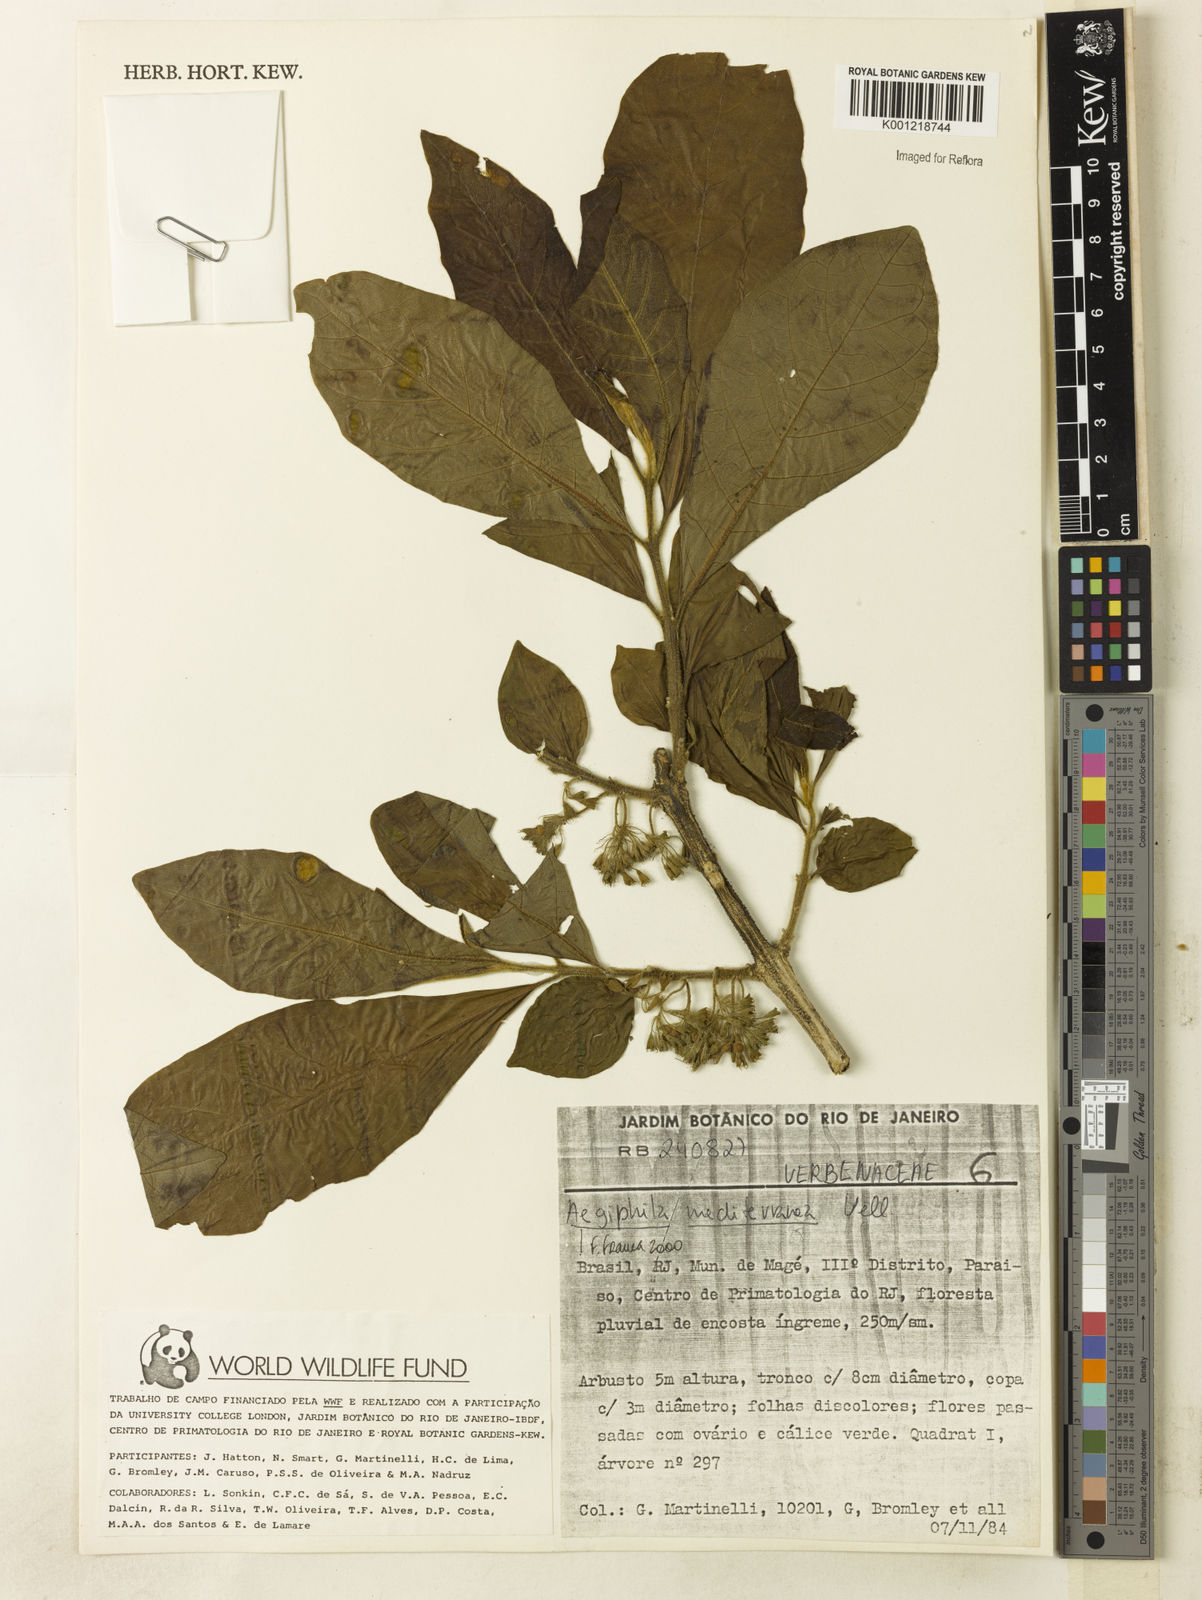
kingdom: Plantae
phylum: Tracheophyta
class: Magnoliopsida
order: Lamiales
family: Lamiaceae
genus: Aegiphila
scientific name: Aegiphila mediterranea
